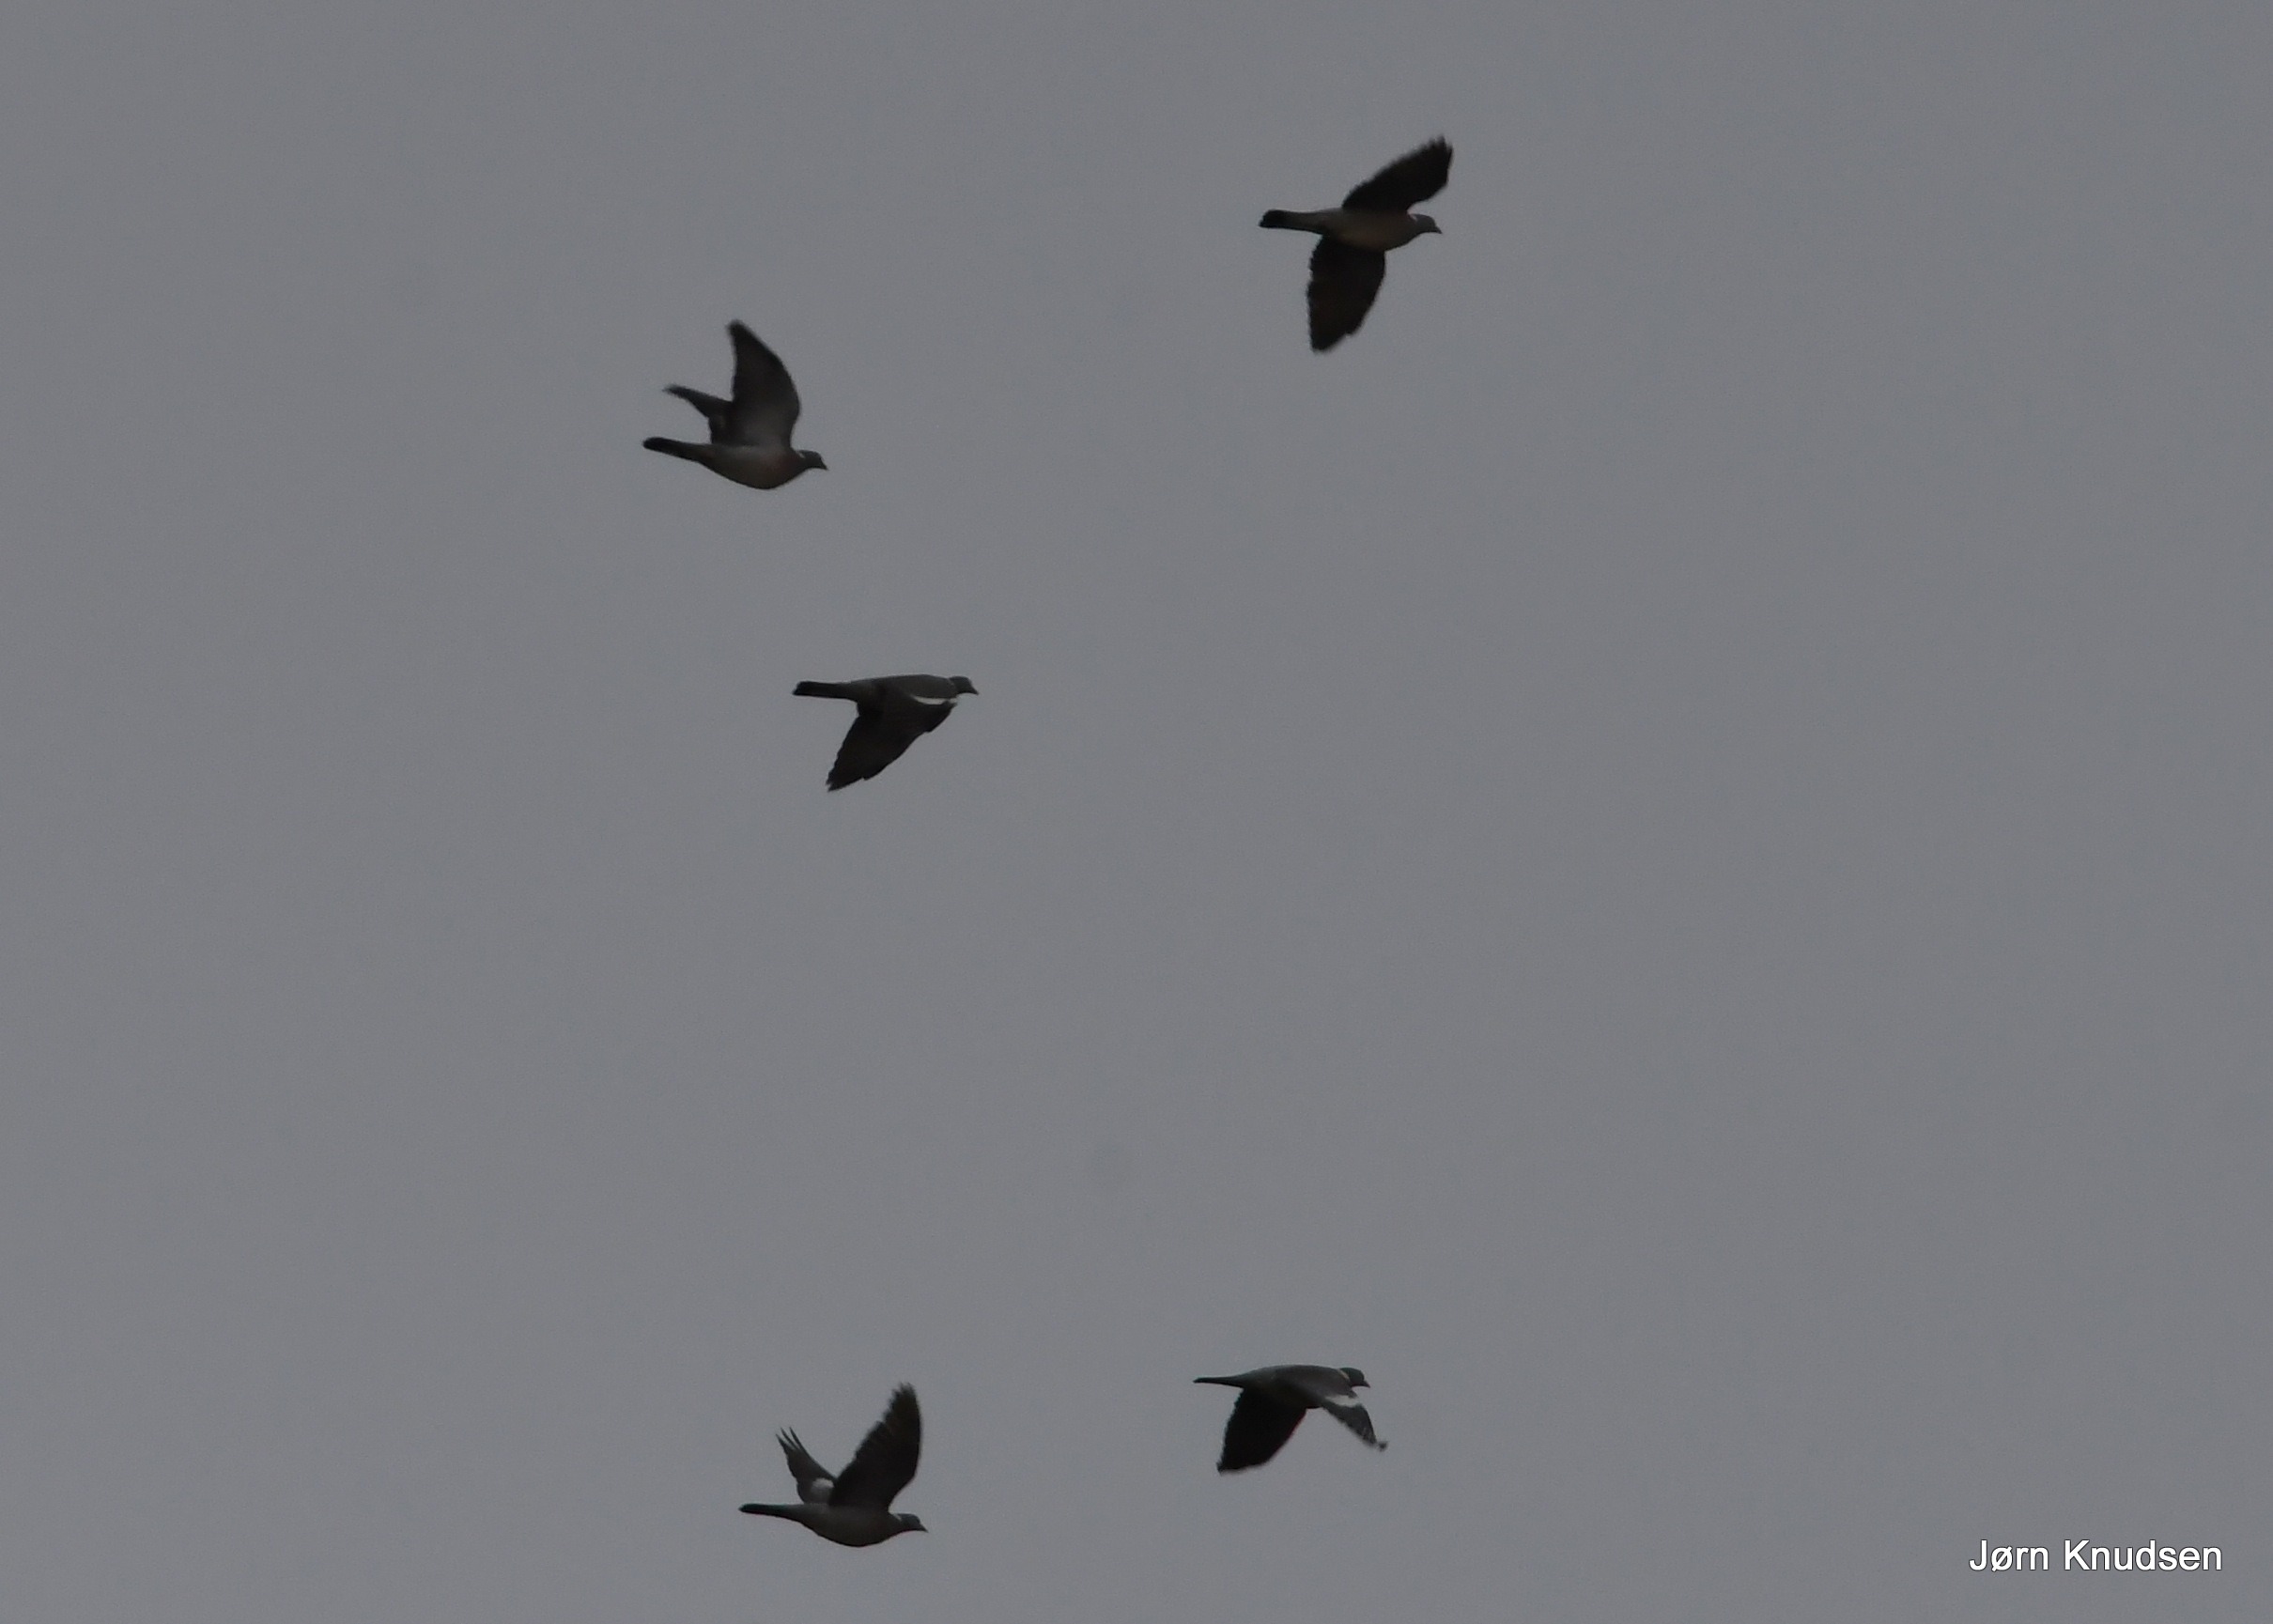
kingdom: Animalia
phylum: Chordata
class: Aves
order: Columbiformes
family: Columbidae
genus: Columba
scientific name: Columba palumbus
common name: Ringdue
